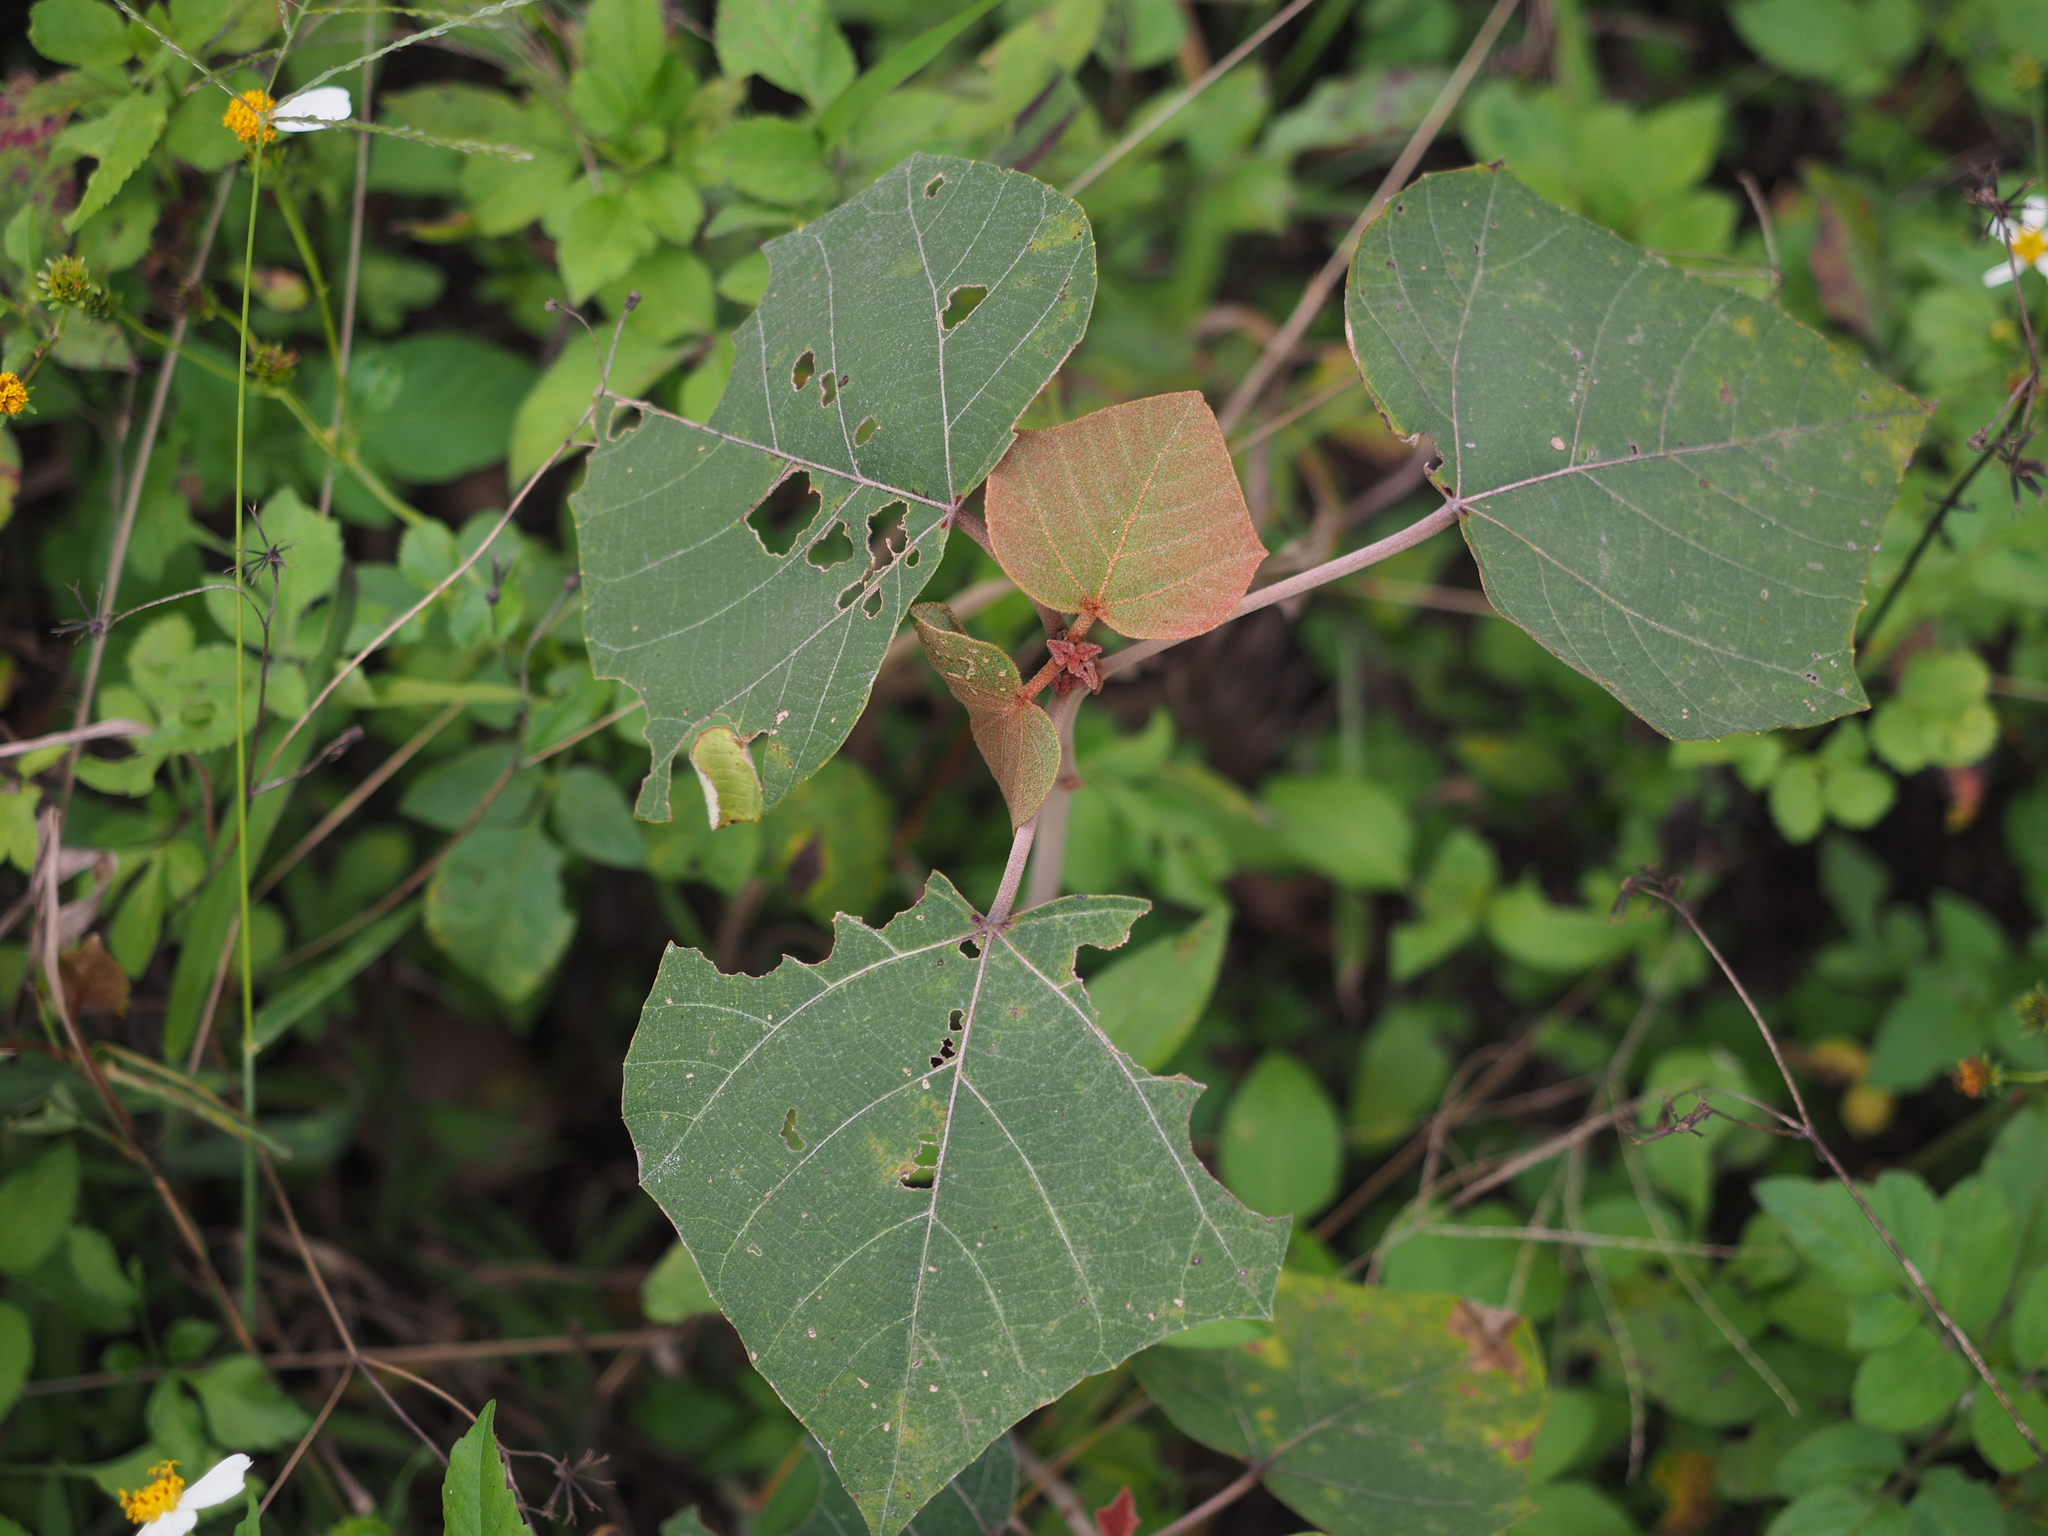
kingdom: Plantae
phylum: Tracheophyta
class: Magnoliopsida
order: Malpighiales
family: Euphorbiaceae
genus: Mallotus
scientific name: Mallotus paniculatus
